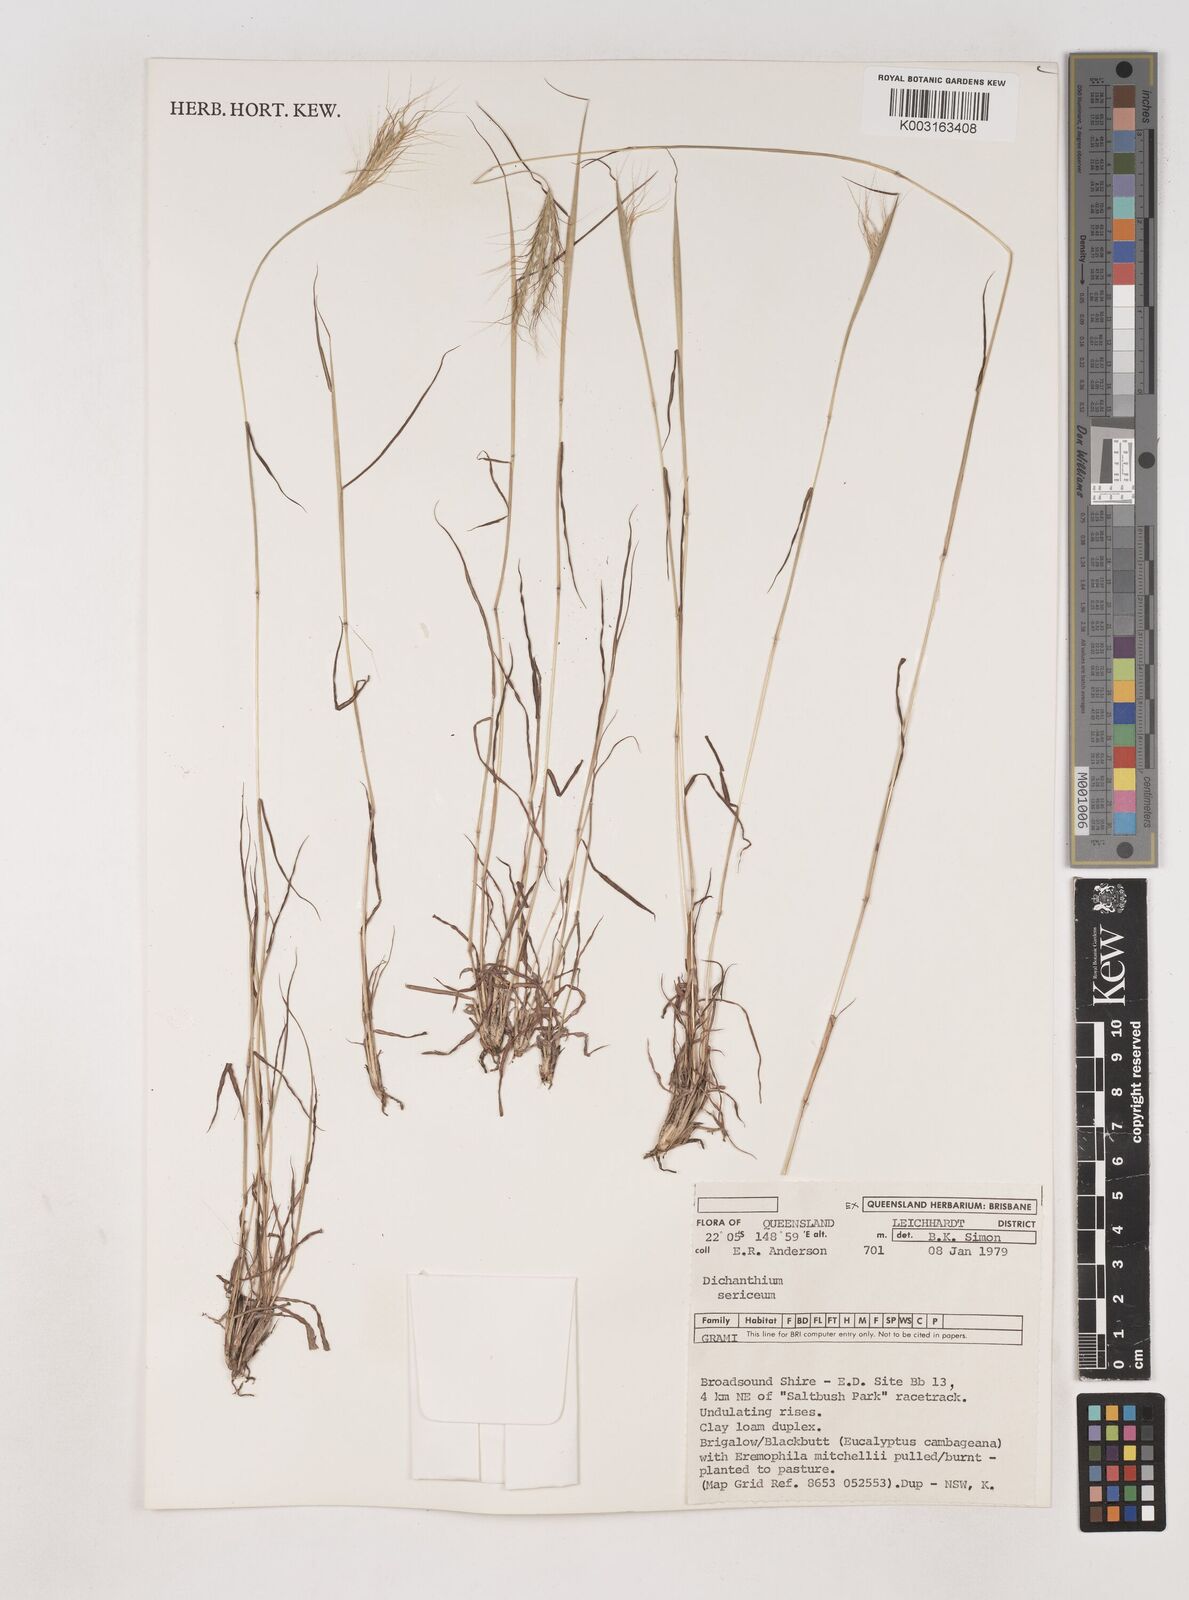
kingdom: Plantae
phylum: Tracheophyta
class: Liliopsida
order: Poales
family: Poaceae
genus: Dichanthium
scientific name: Dichanthium sericeum
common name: Silky bluestem
